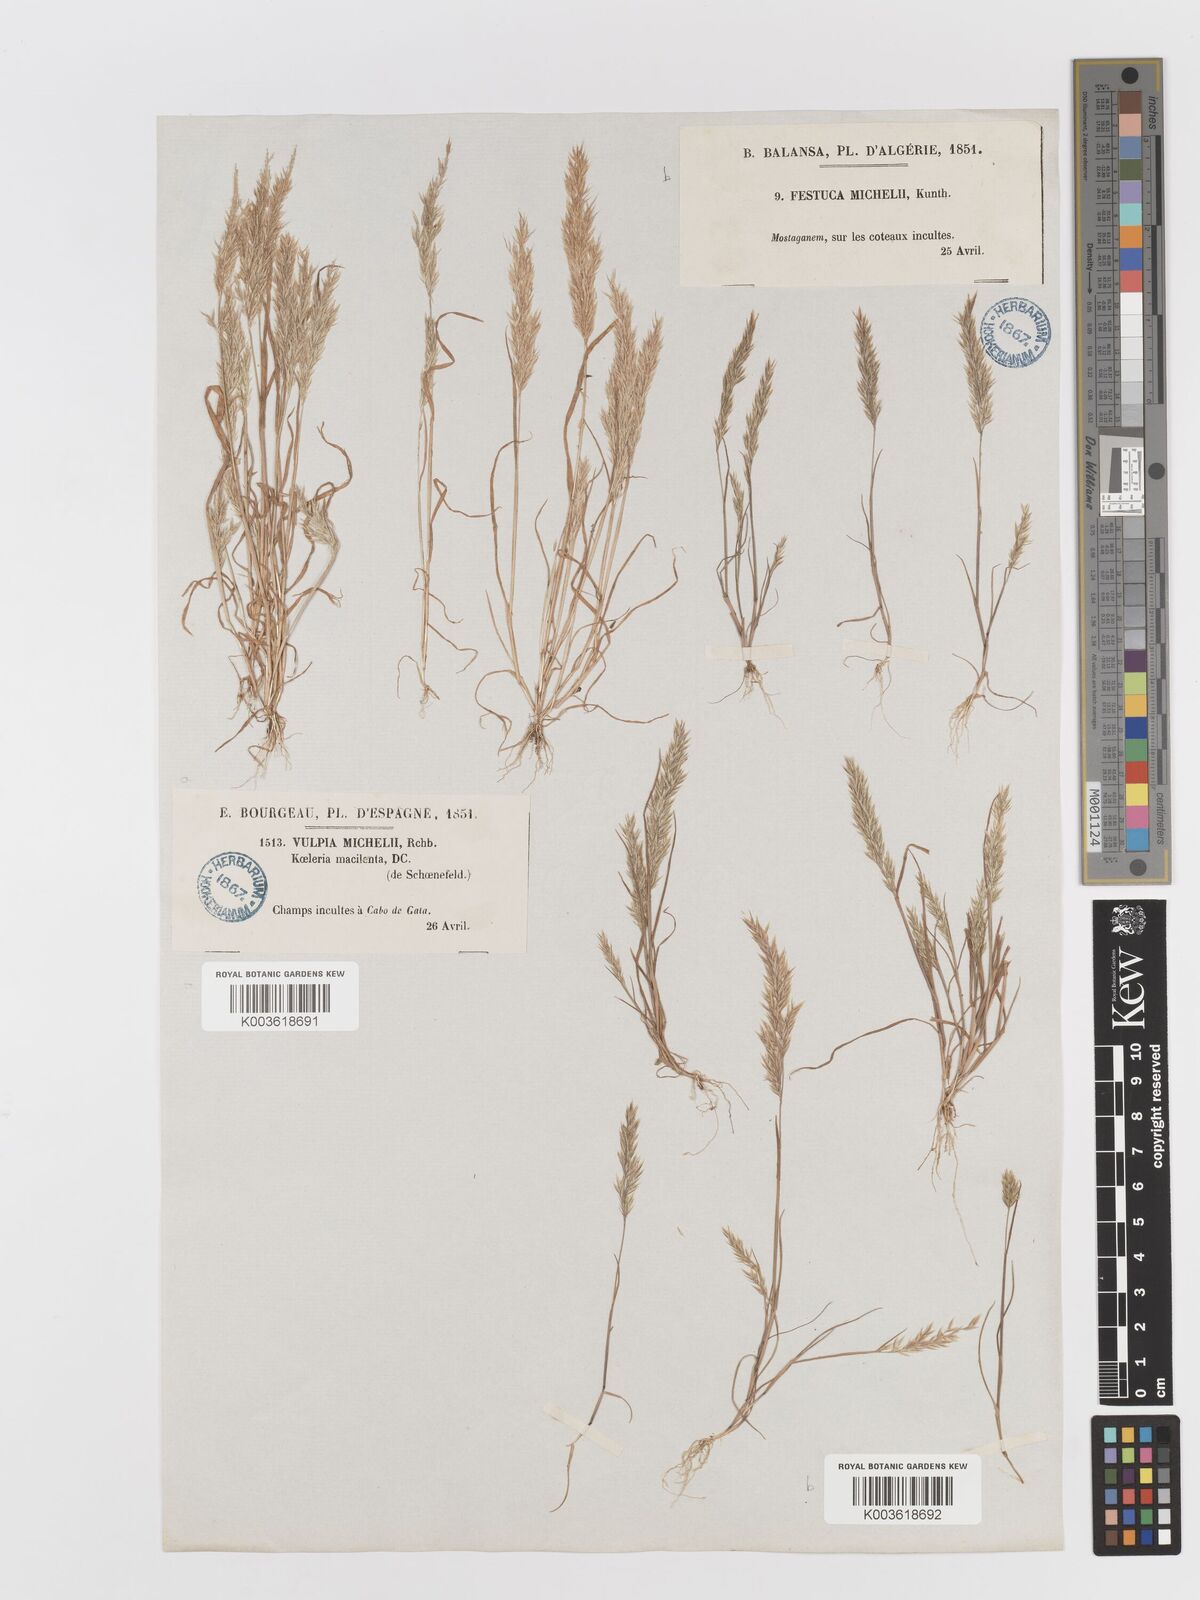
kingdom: Plantae
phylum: Tracheophyta
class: Liliopsida
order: Poales
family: Poaceae
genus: Avellinia
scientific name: Avellinia festucoides
